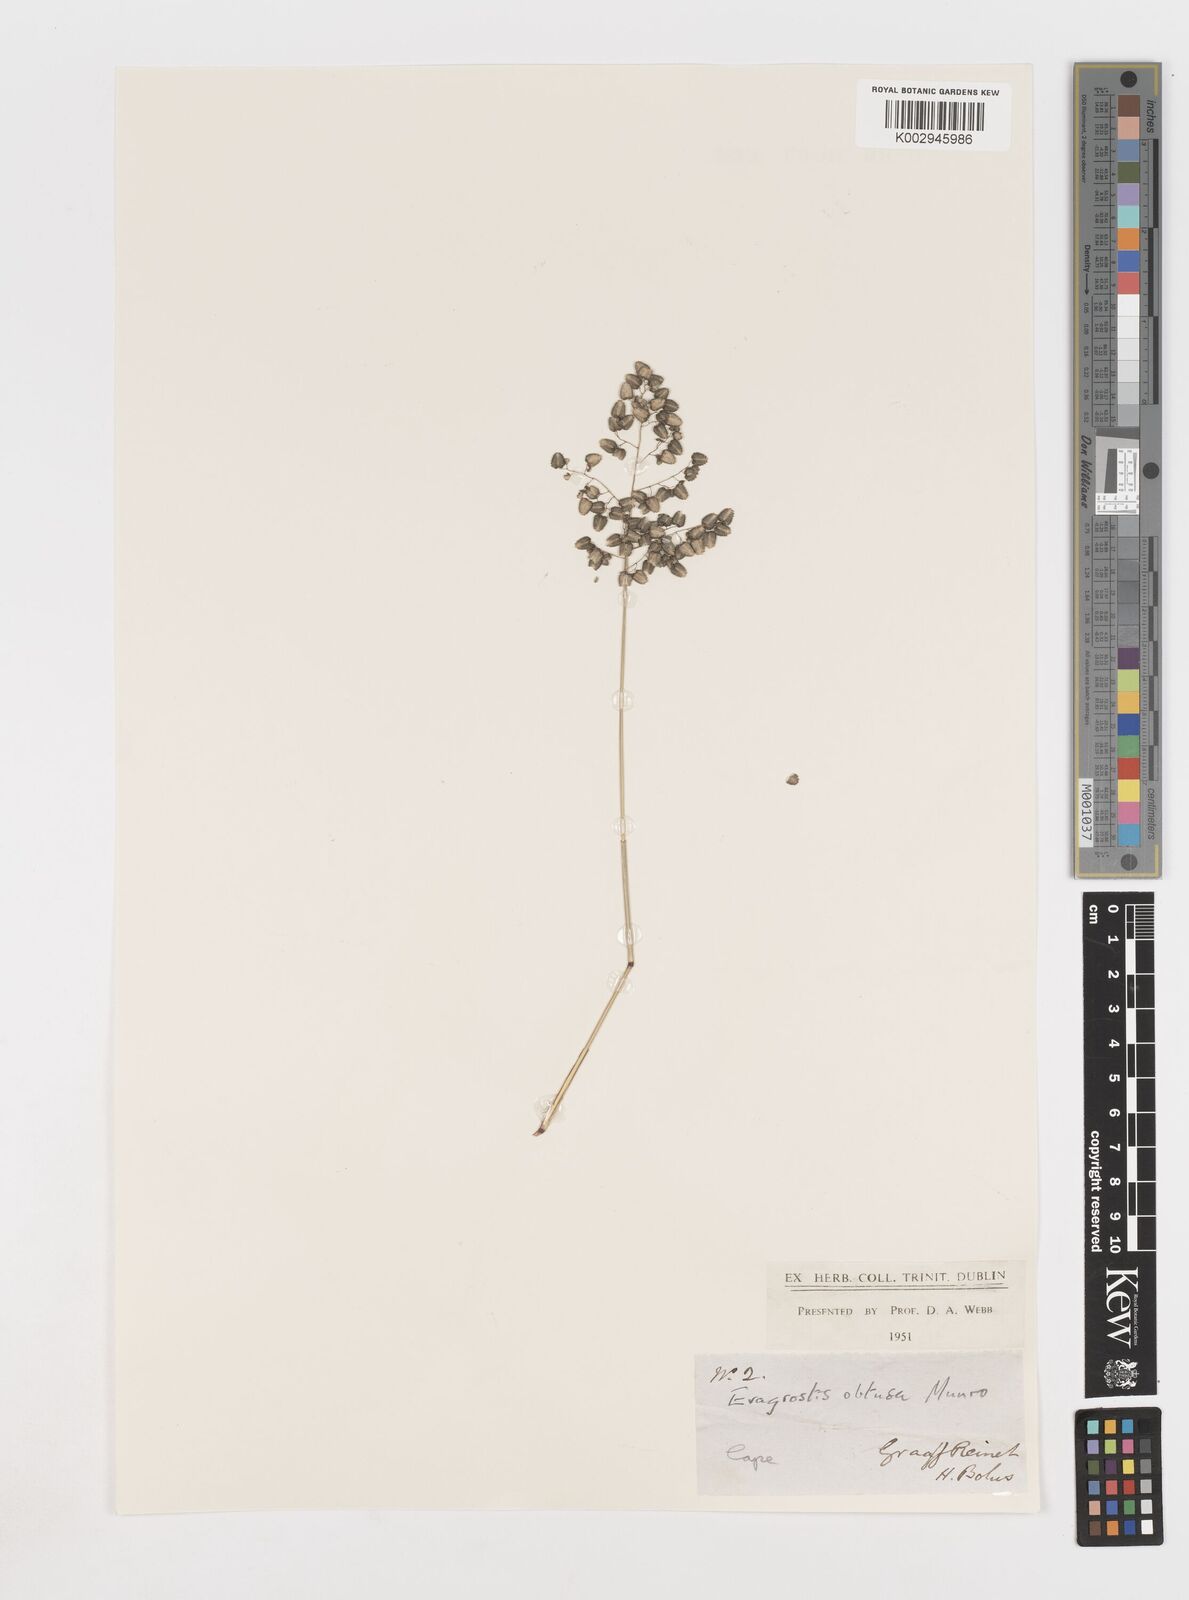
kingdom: Plantae
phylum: Tracheophyta
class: Liliopsida
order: Poales
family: Poaceae
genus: Eragrostis
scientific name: Eragrostis obtusa
